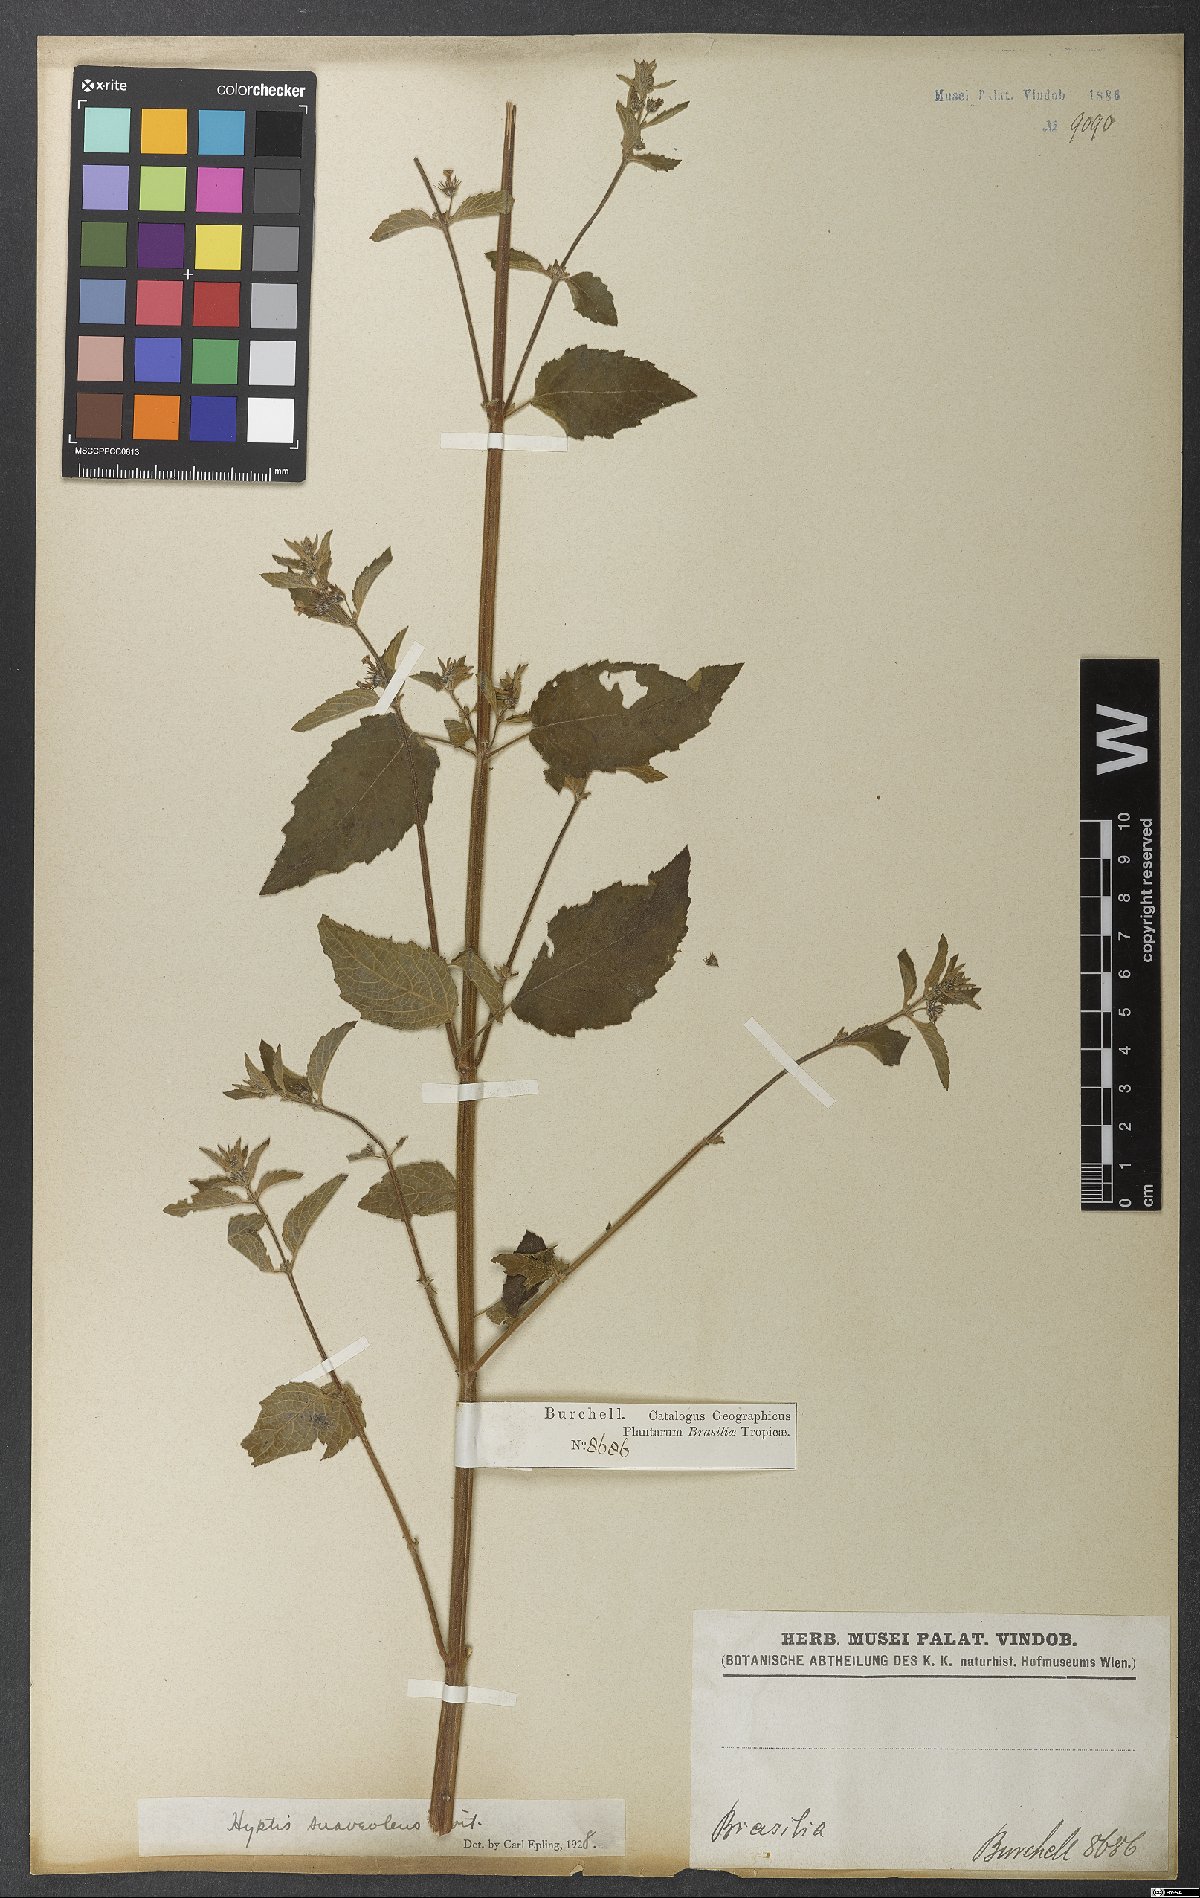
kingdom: Plantae
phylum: Tracheophyta
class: Magnoliopsida
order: Lamiales
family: Lamiaceae
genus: Mesosphaerum
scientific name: Mesosphaerum suaveolens
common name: Pignut
